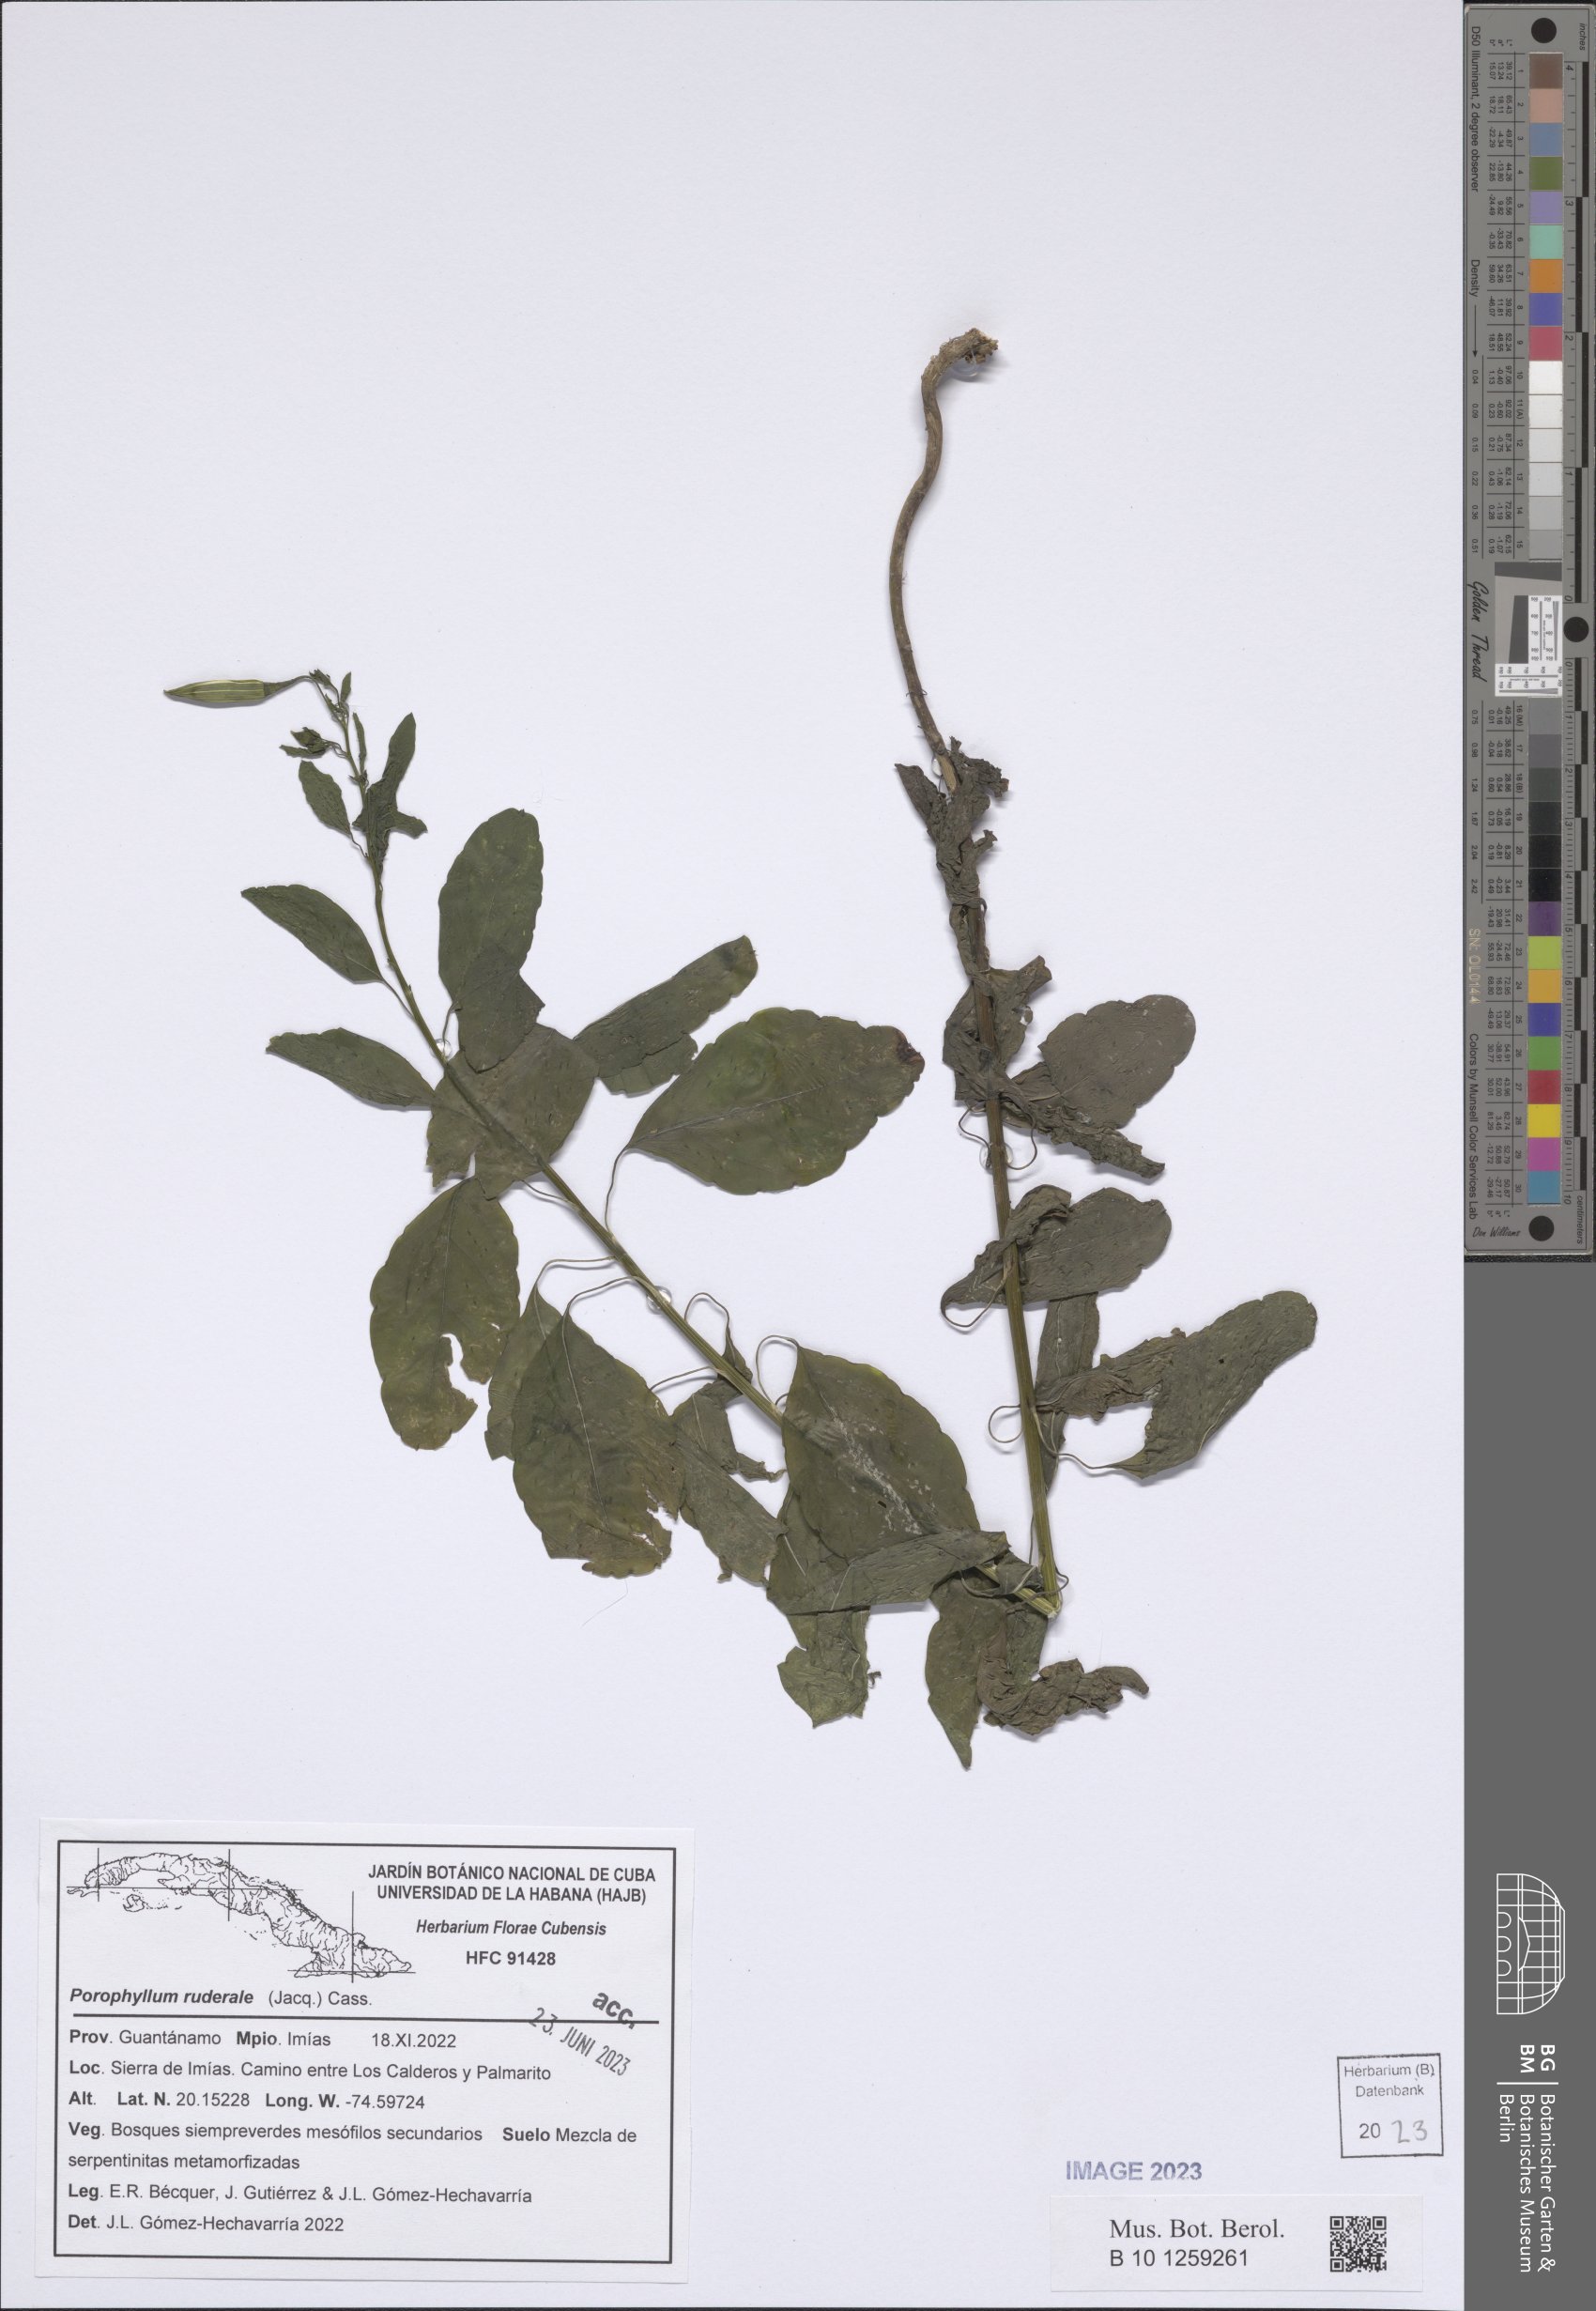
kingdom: Plantae
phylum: Tracheophyta
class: Magnoliopsida
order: Asterales
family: Asteraceae
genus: Porophyllum
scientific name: Porophyllum ruderale
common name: Yerba porosa
